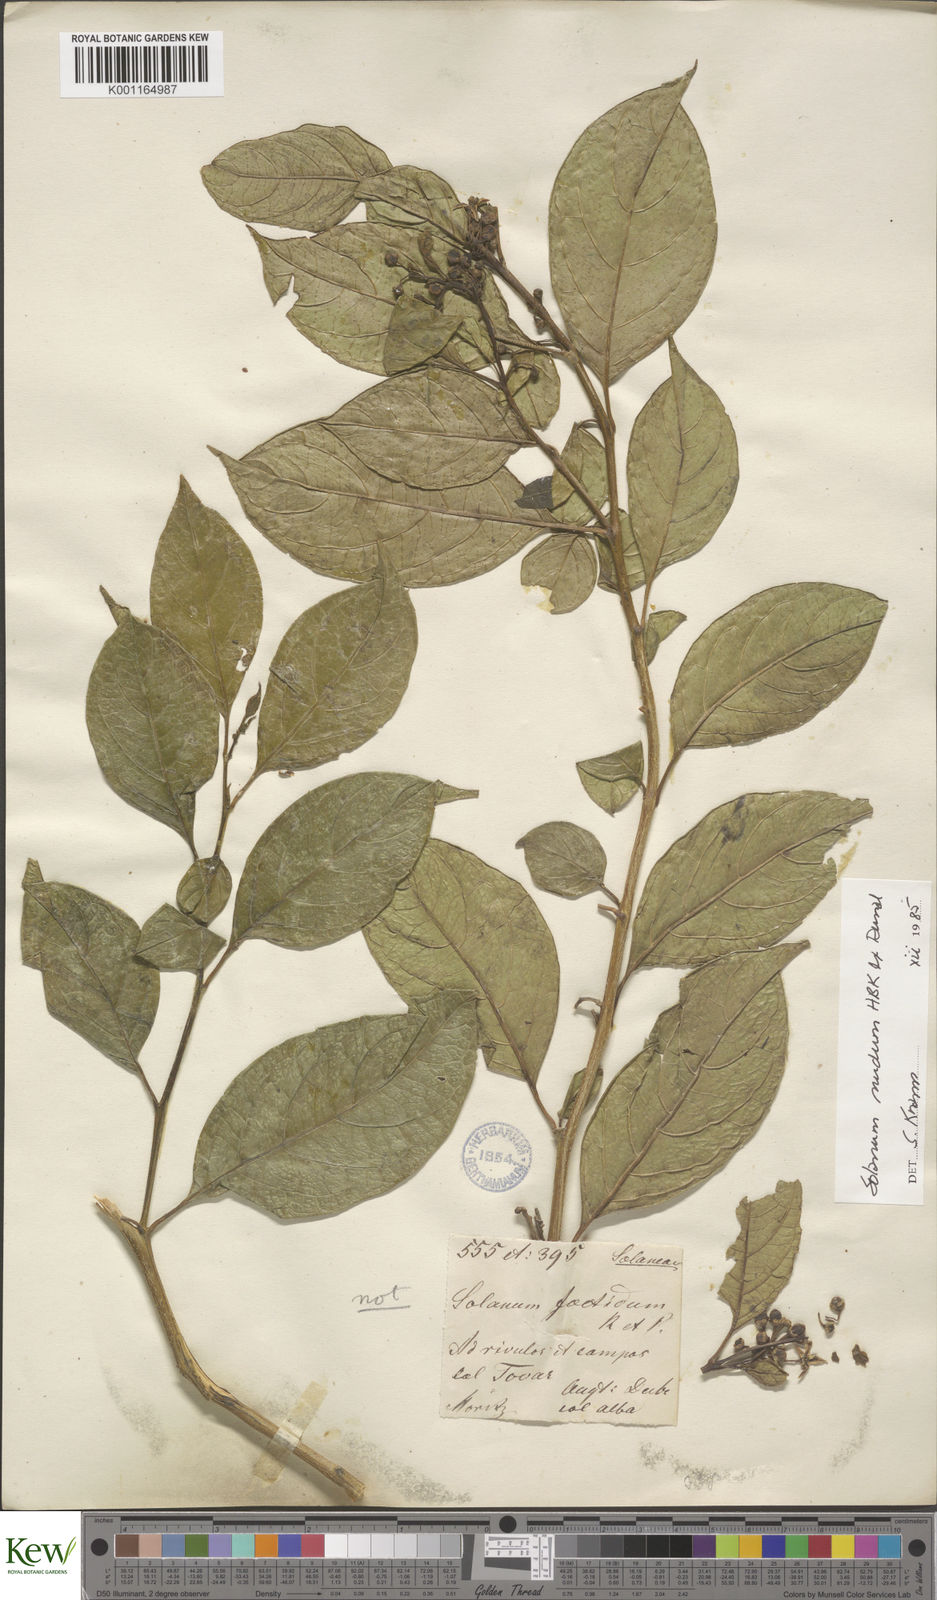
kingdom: Plantae
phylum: Tracheophyta
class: Magnoliopsida
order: Solanales
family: Solanaceae
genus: Solanum
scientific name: Solanum nudum
